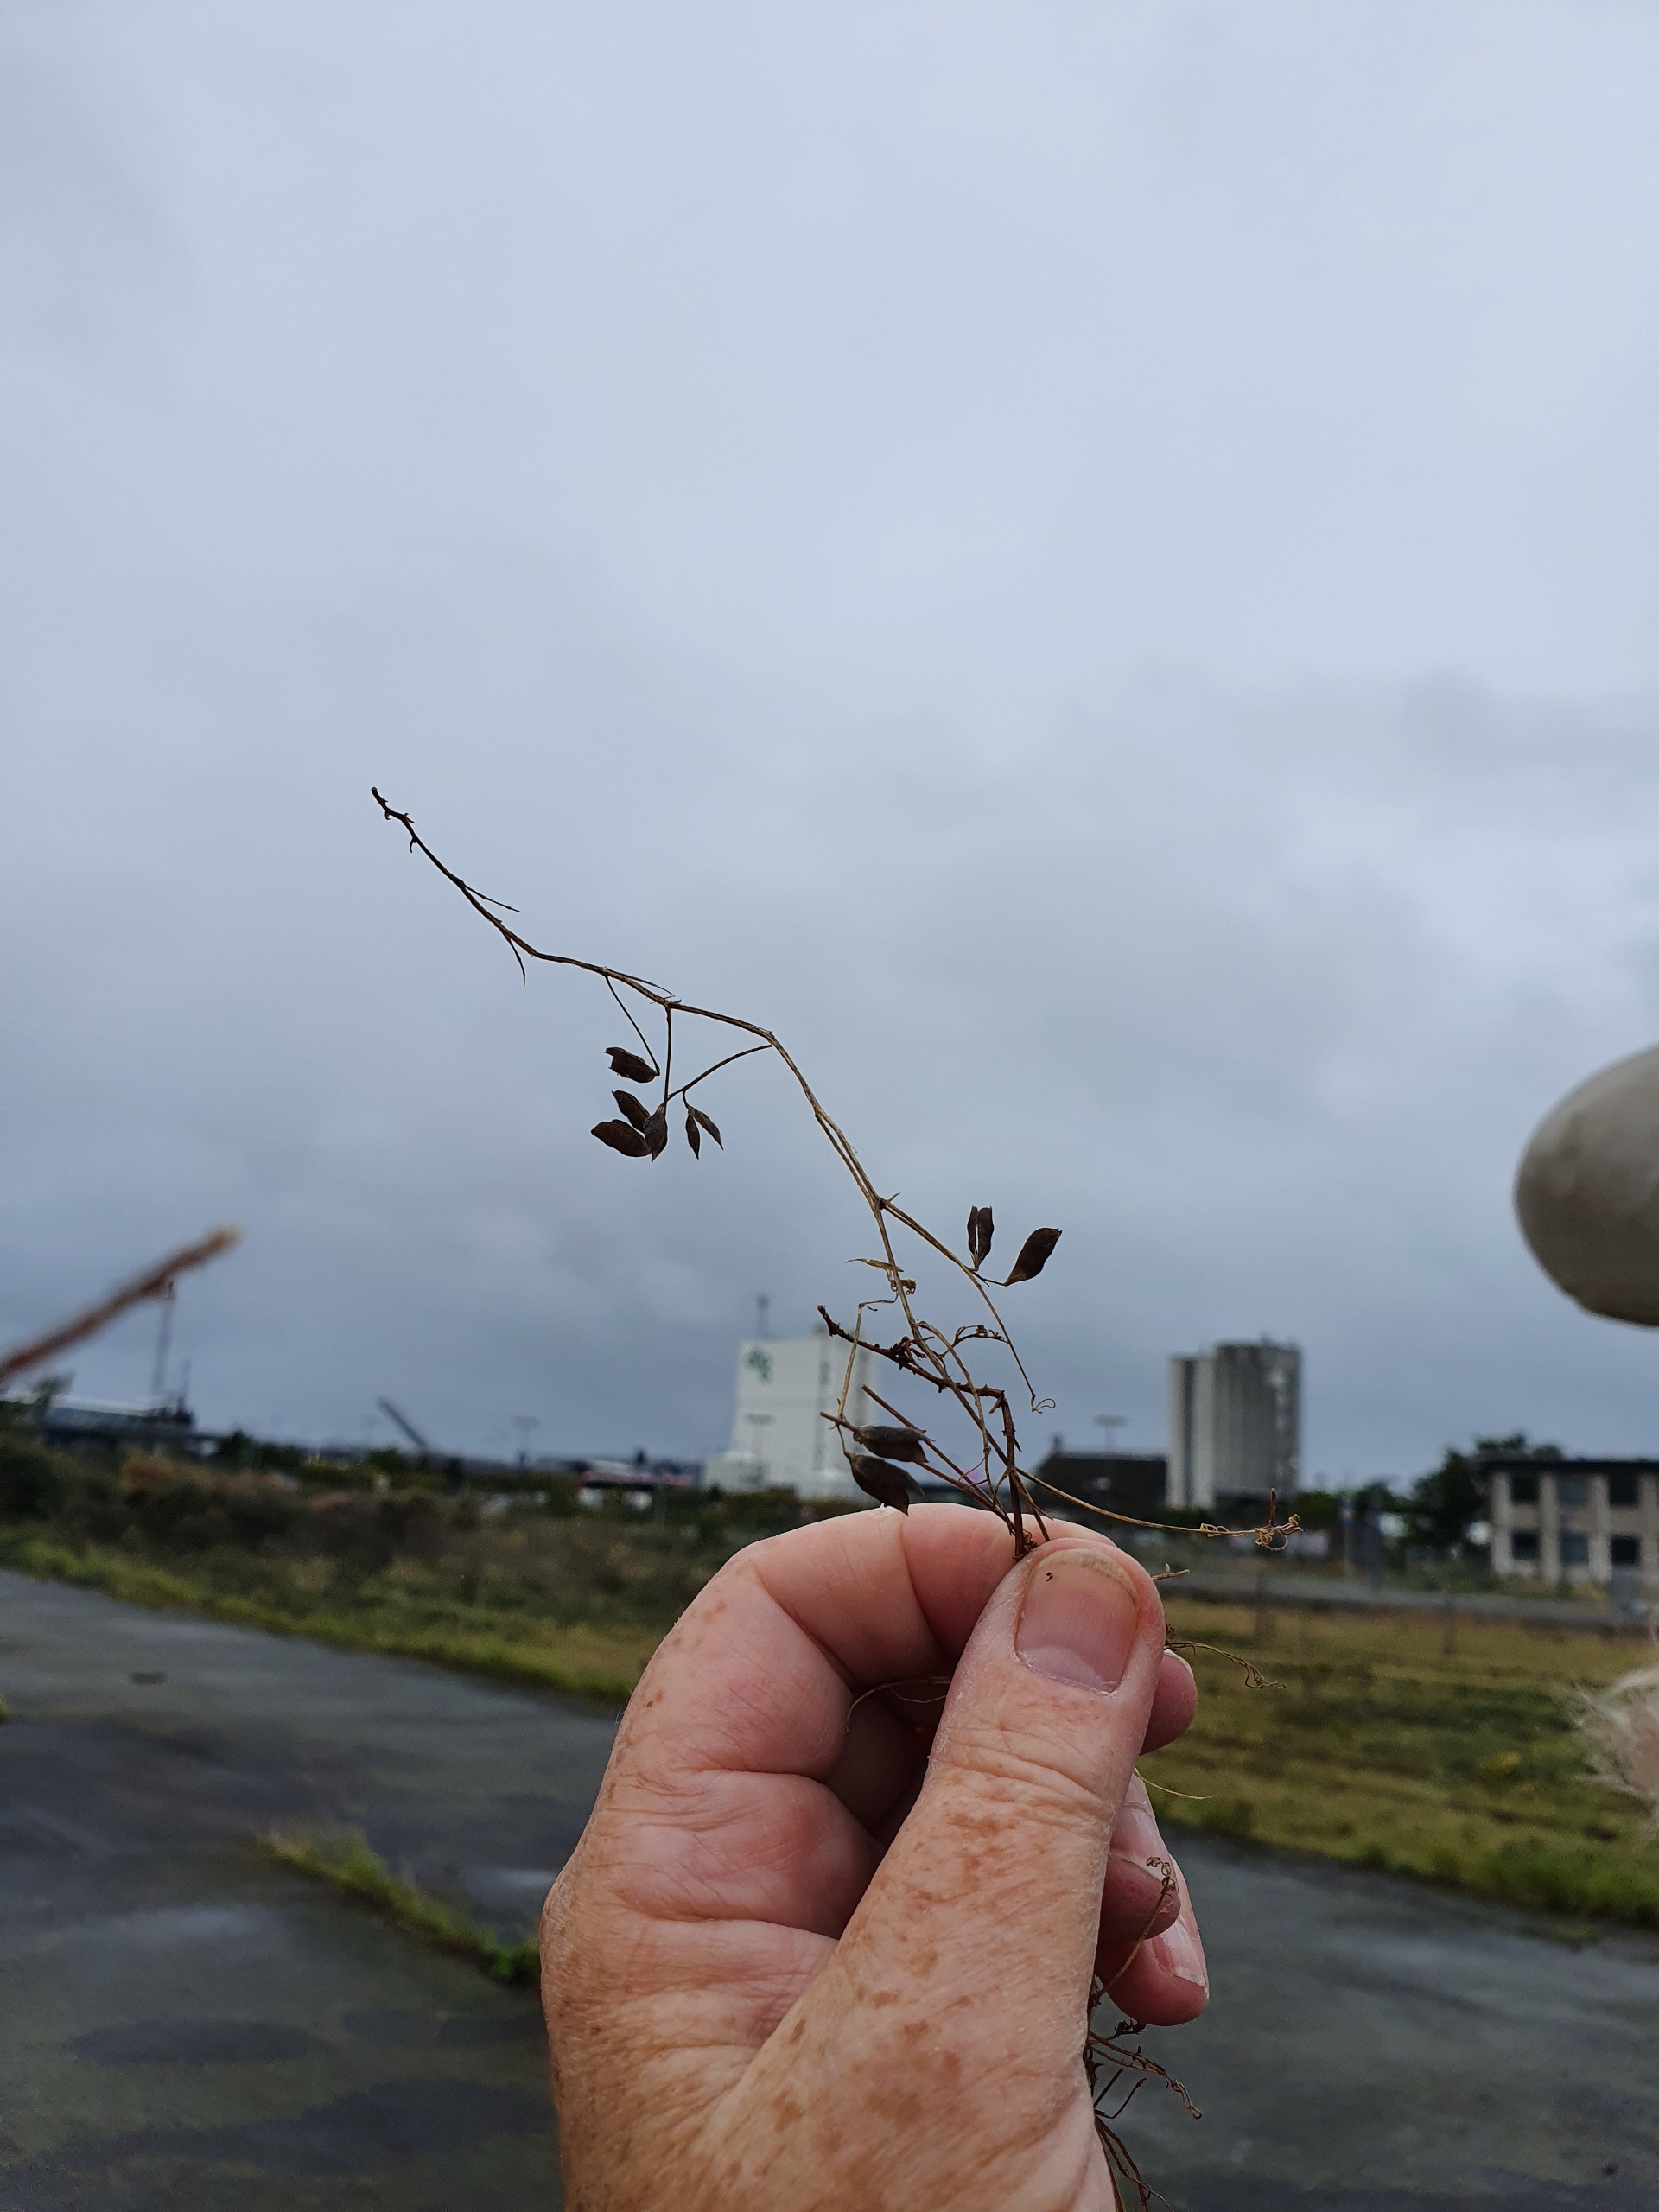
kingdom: Plantae
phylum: Tracheophyta
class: Magnoliopsida
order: Fabales
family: Fabaceae
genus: Vicia
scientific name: Vicia hirsuta
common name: Tofrøet vikke
